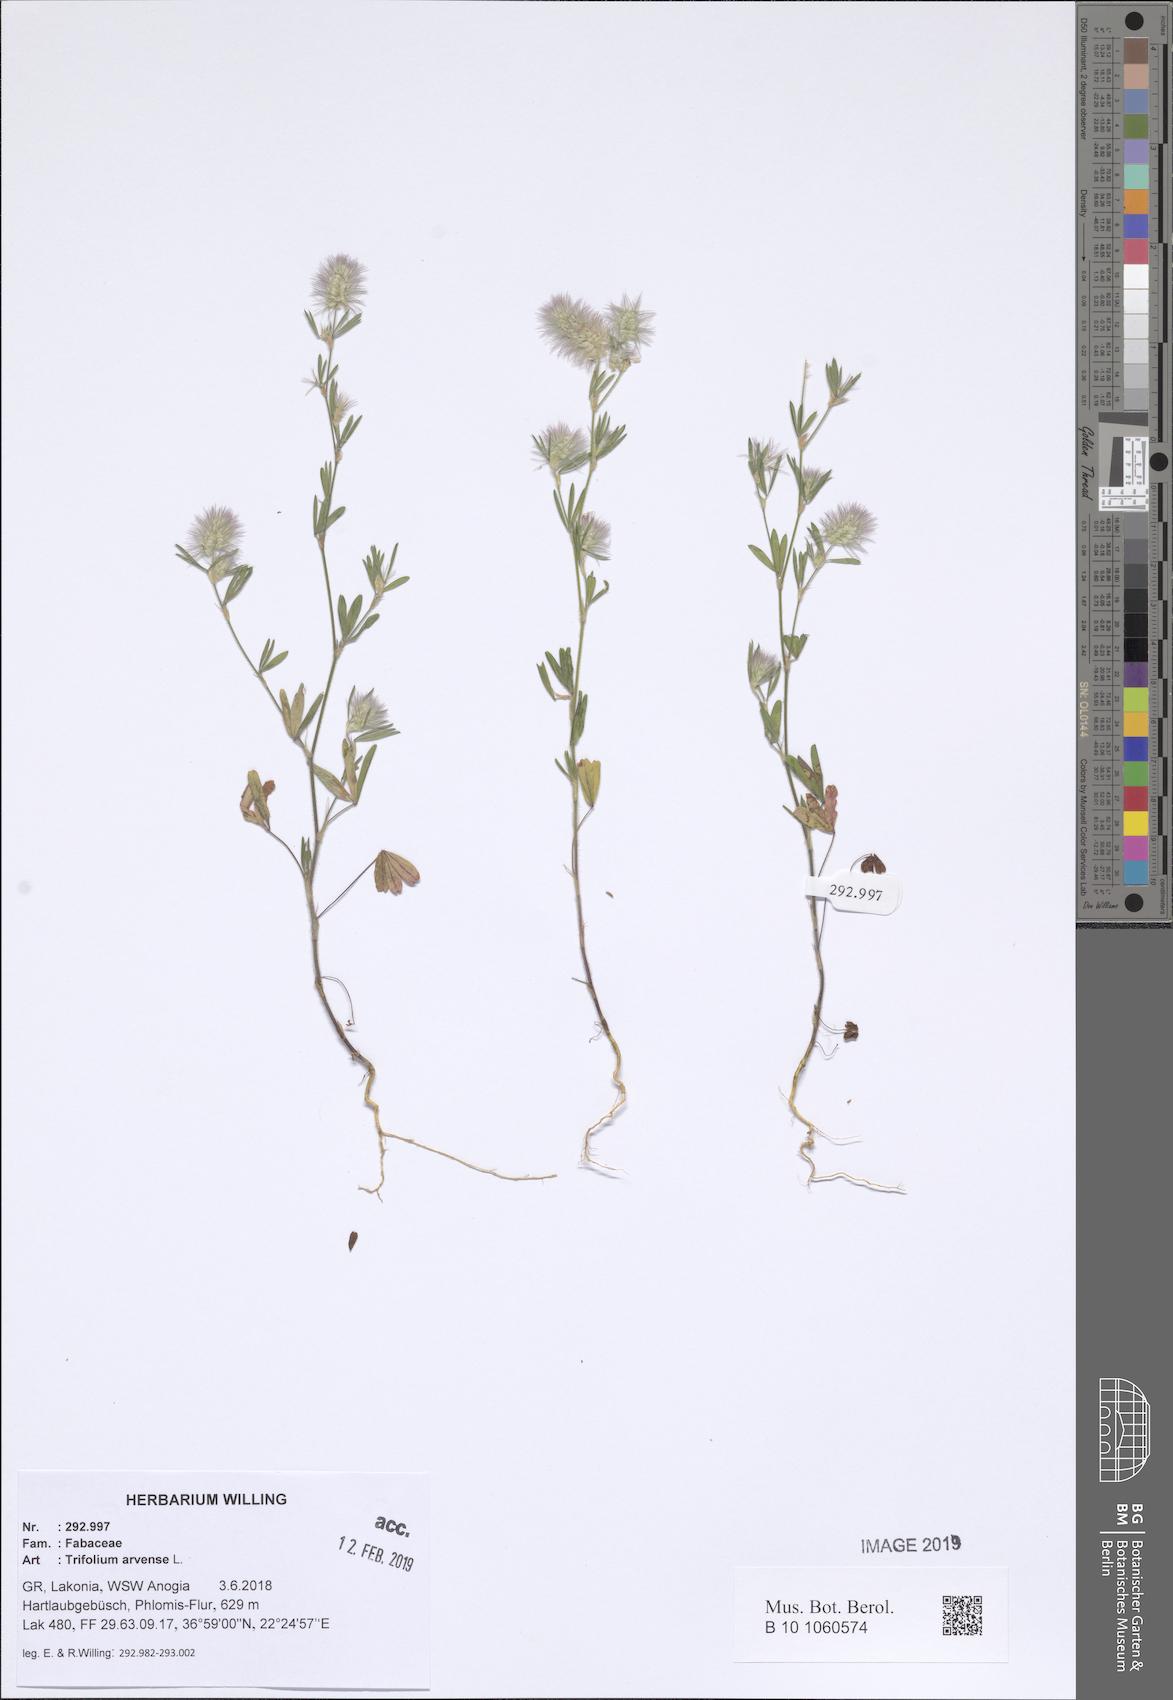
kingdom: Plantae
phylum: Tracheophyta
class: Magnoliopsida
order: Fabales
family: Fabaceae
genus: Trifolium
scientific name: Trifolium arvense
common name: Hare's-foot clover
